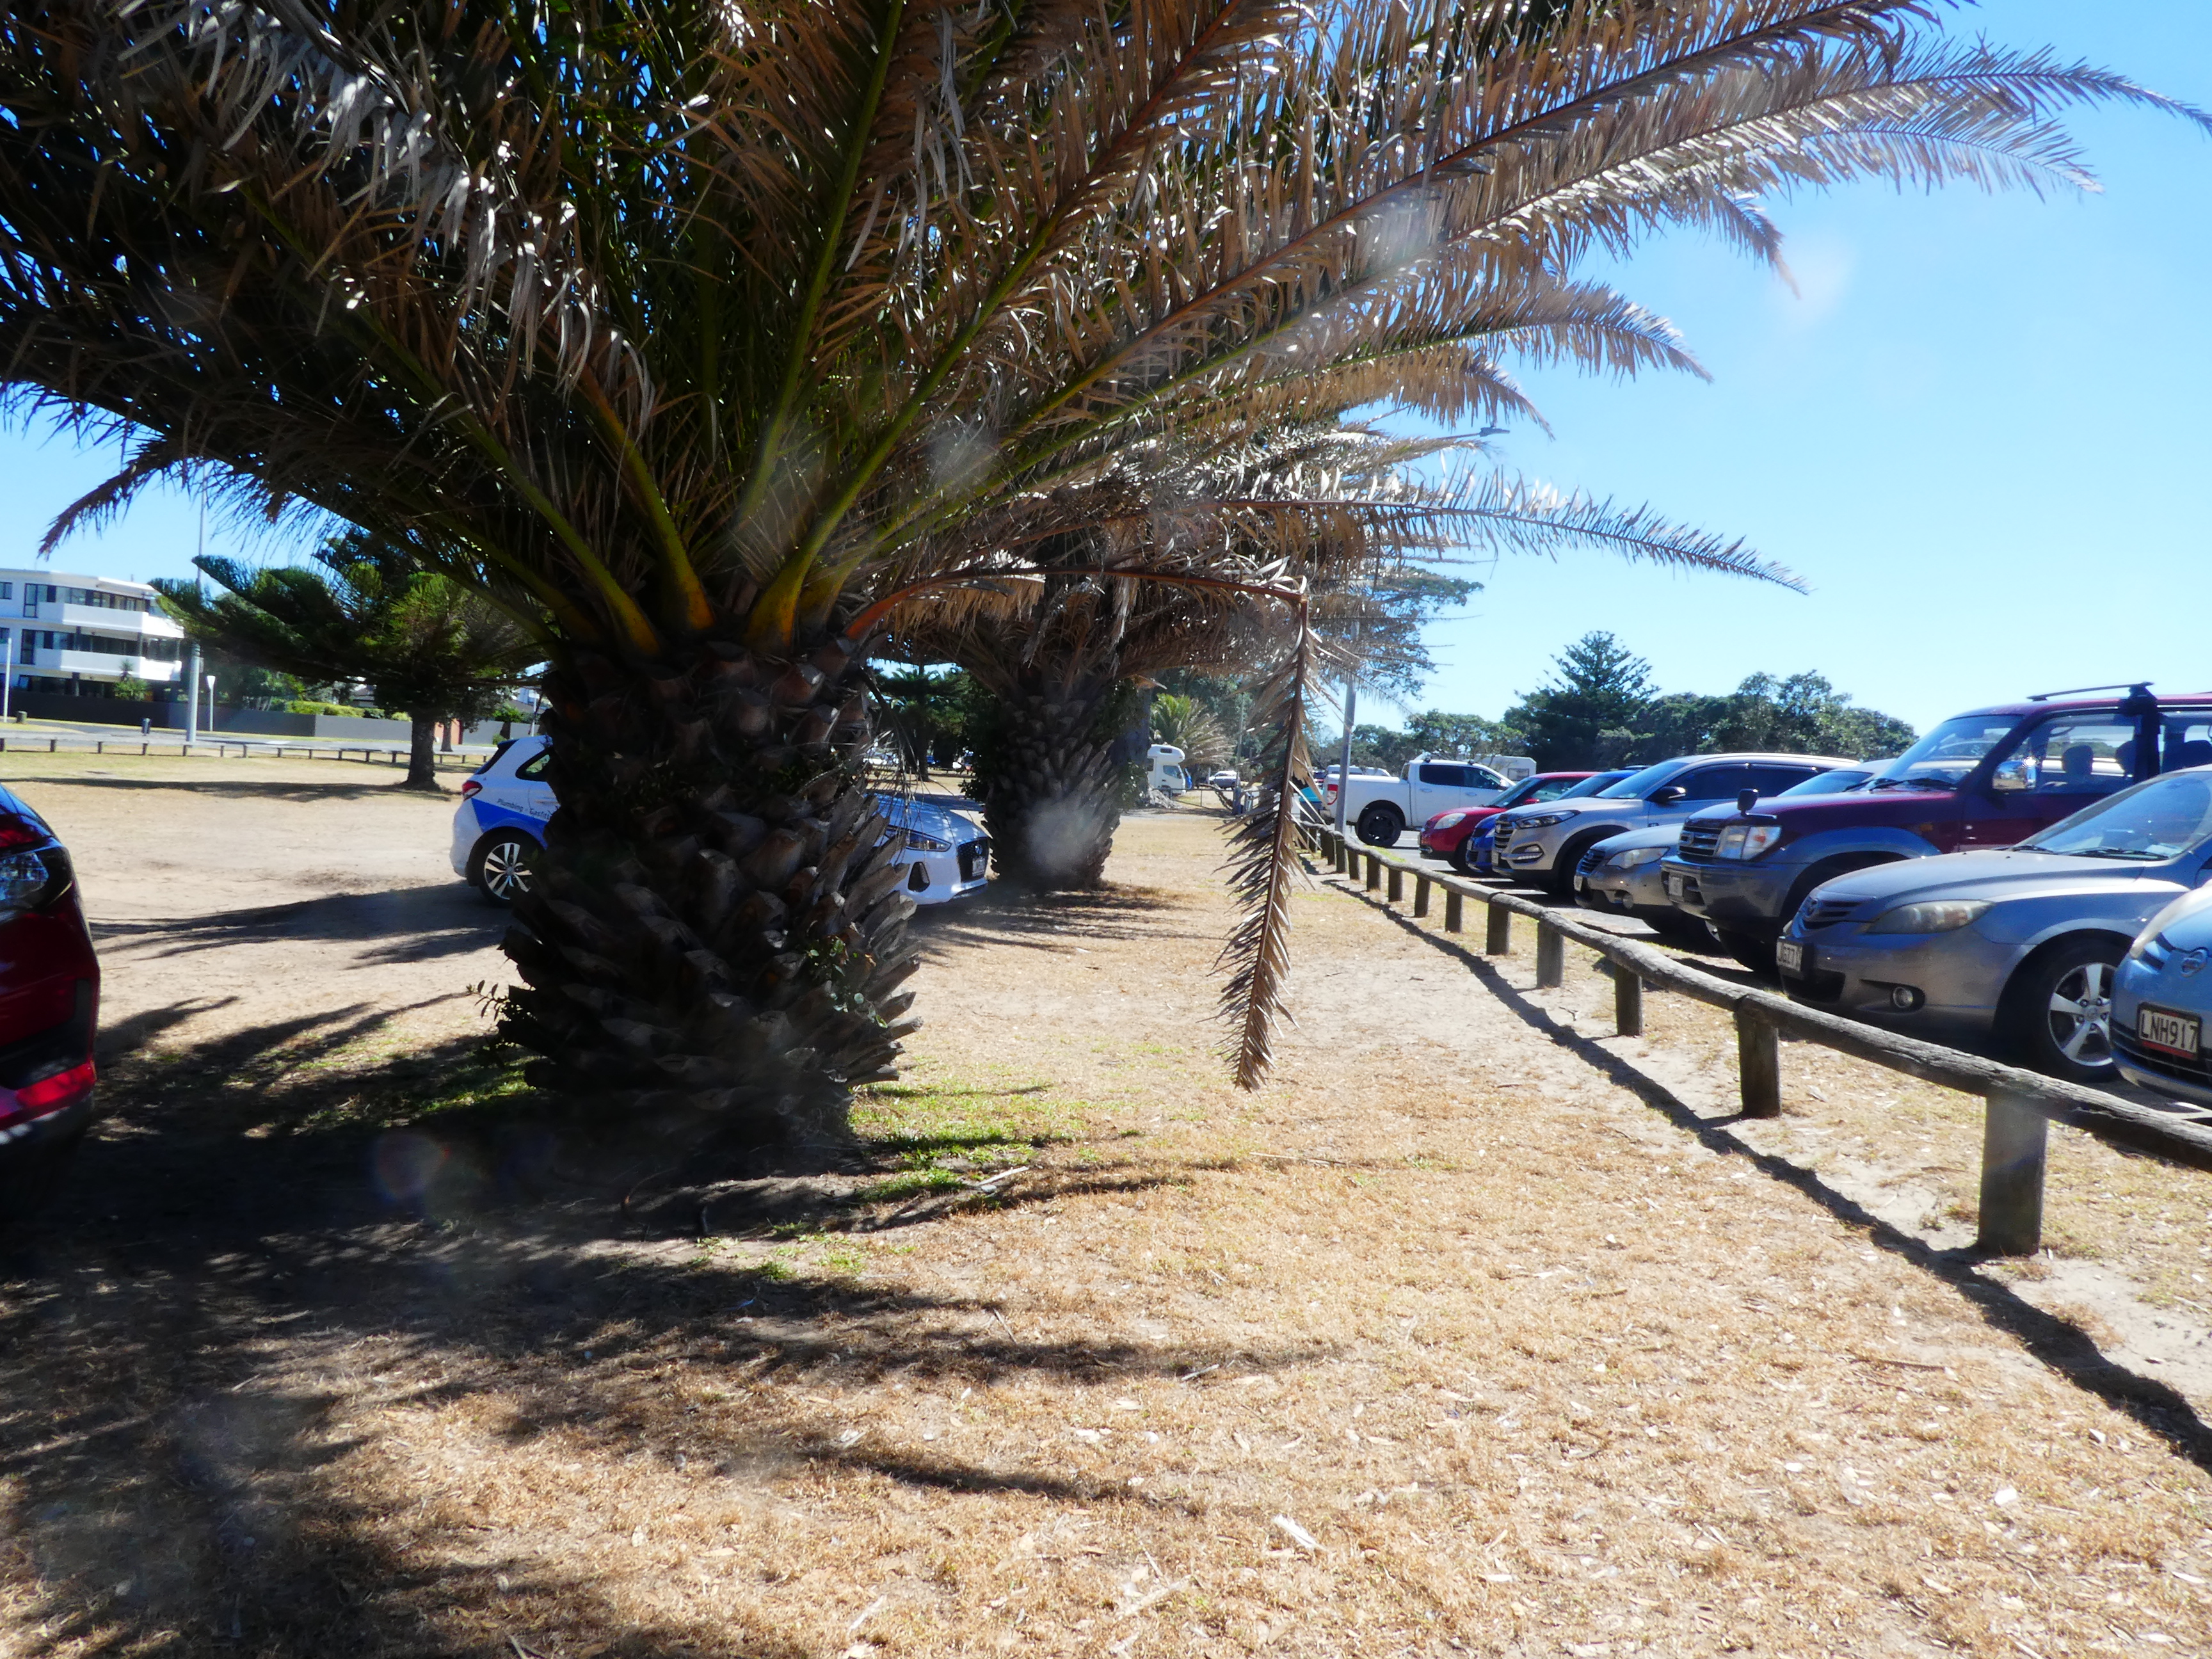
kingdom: Plantae
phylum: Tracheophyta
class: Liliopsida
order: Arecales
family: Arecaceae
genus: Phoenix
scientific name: Phoenix canariensis
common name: Canary island date palm
